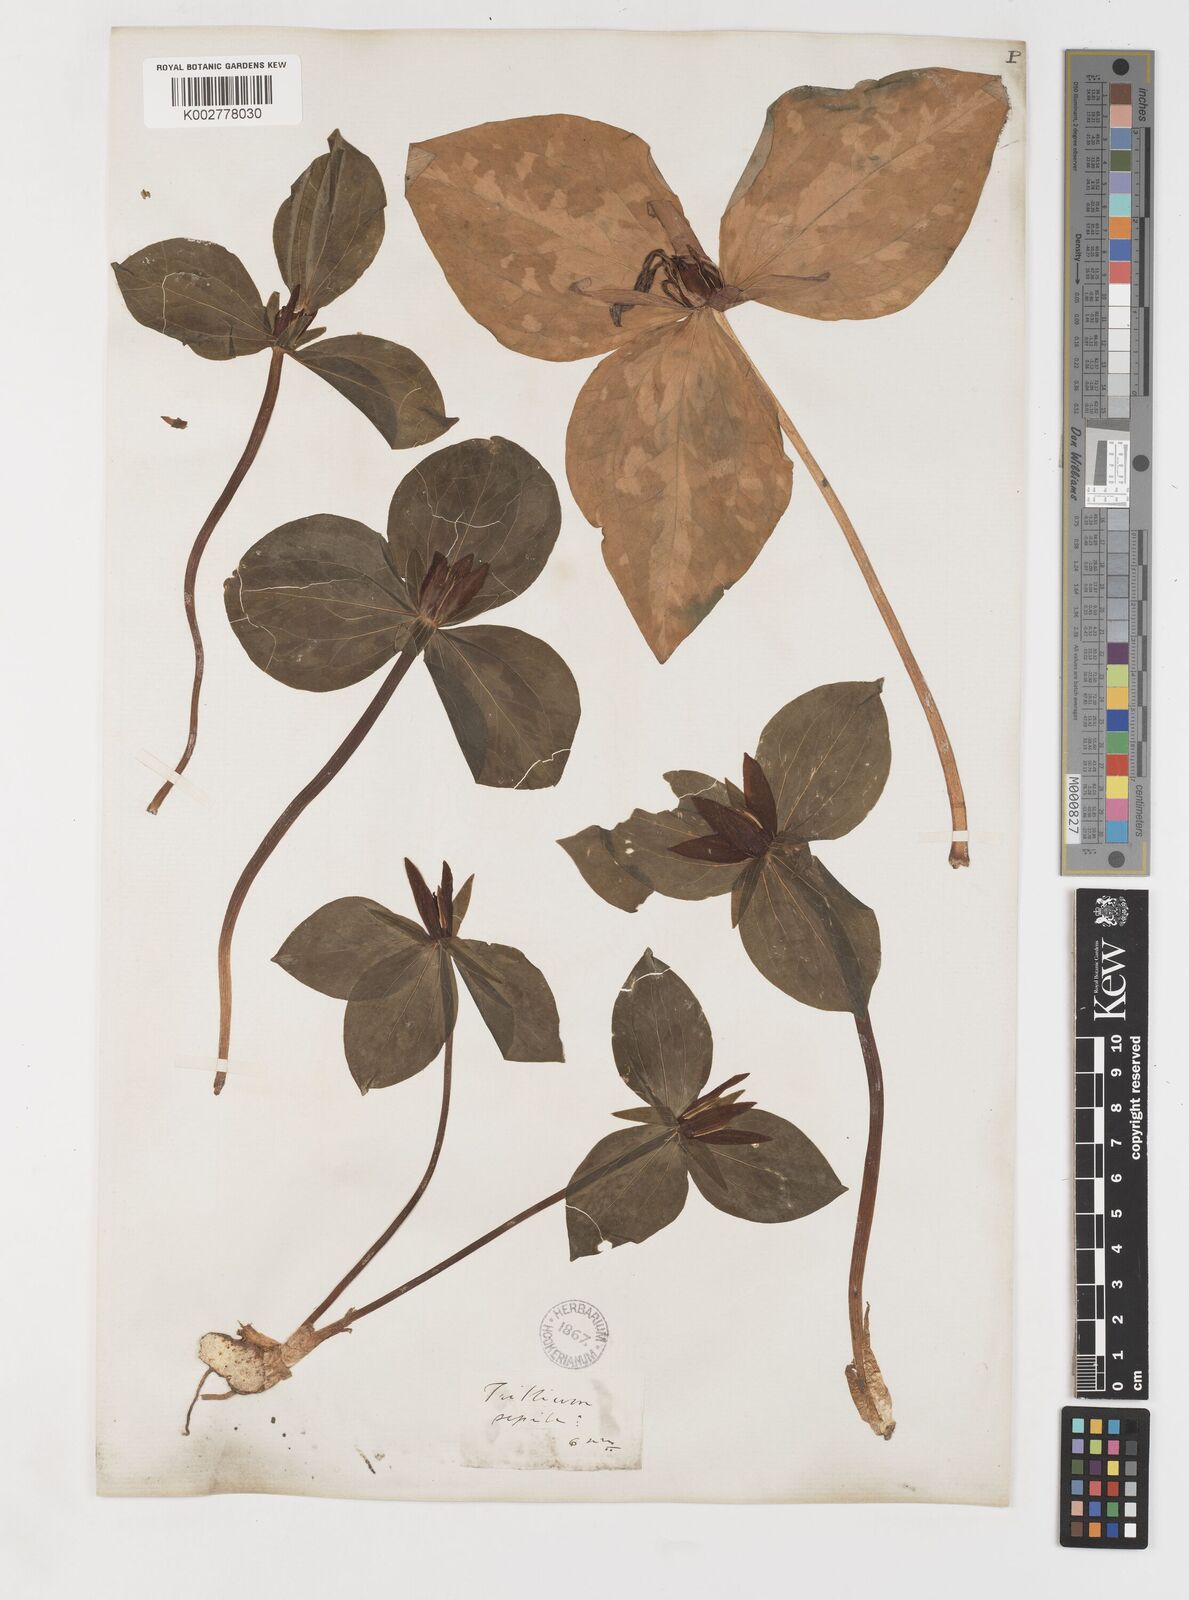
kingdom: Plantae
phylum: Tracheophyta
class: Liliopsida
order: Liliales
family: Melanthiaceae
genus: Trillium
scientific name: Trillium sessile
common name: Sessile trillium
